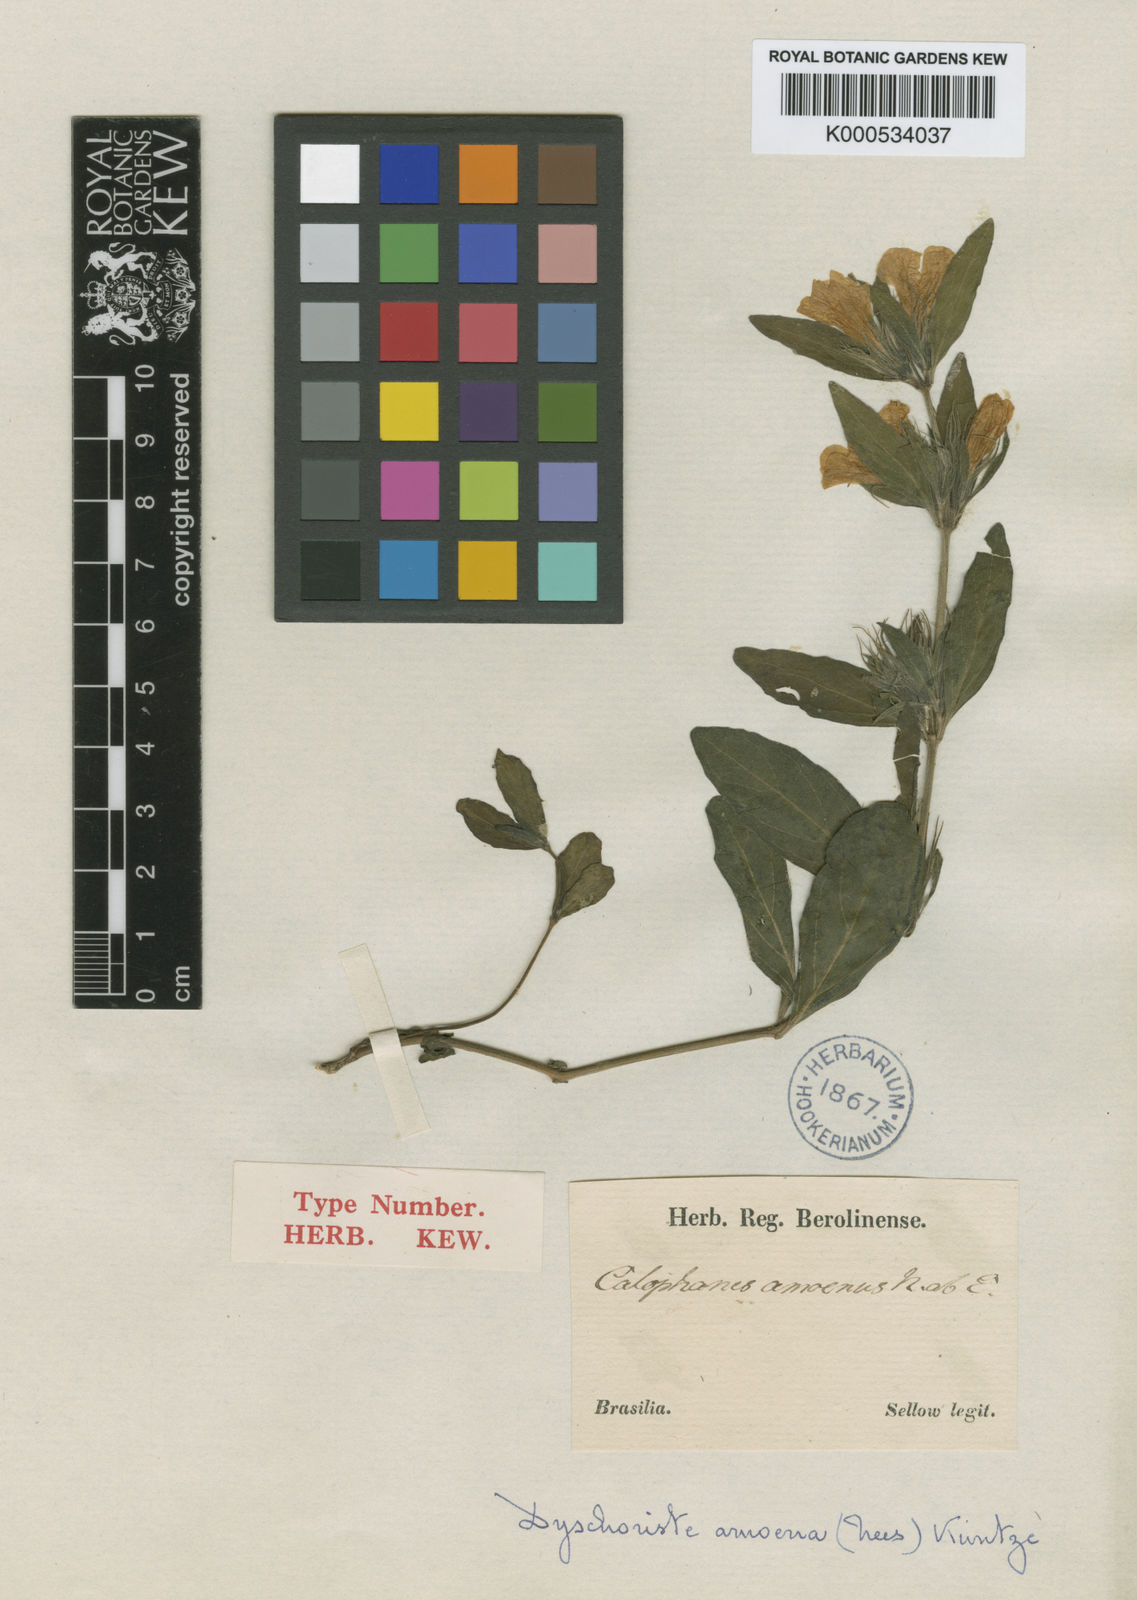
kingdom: Plantae
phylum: Tracheophyta
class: Magnoliopsida
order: Lamiales
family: Acanthaceae
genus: Dyschoriste
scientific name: Dyschoriste lavandulacea
